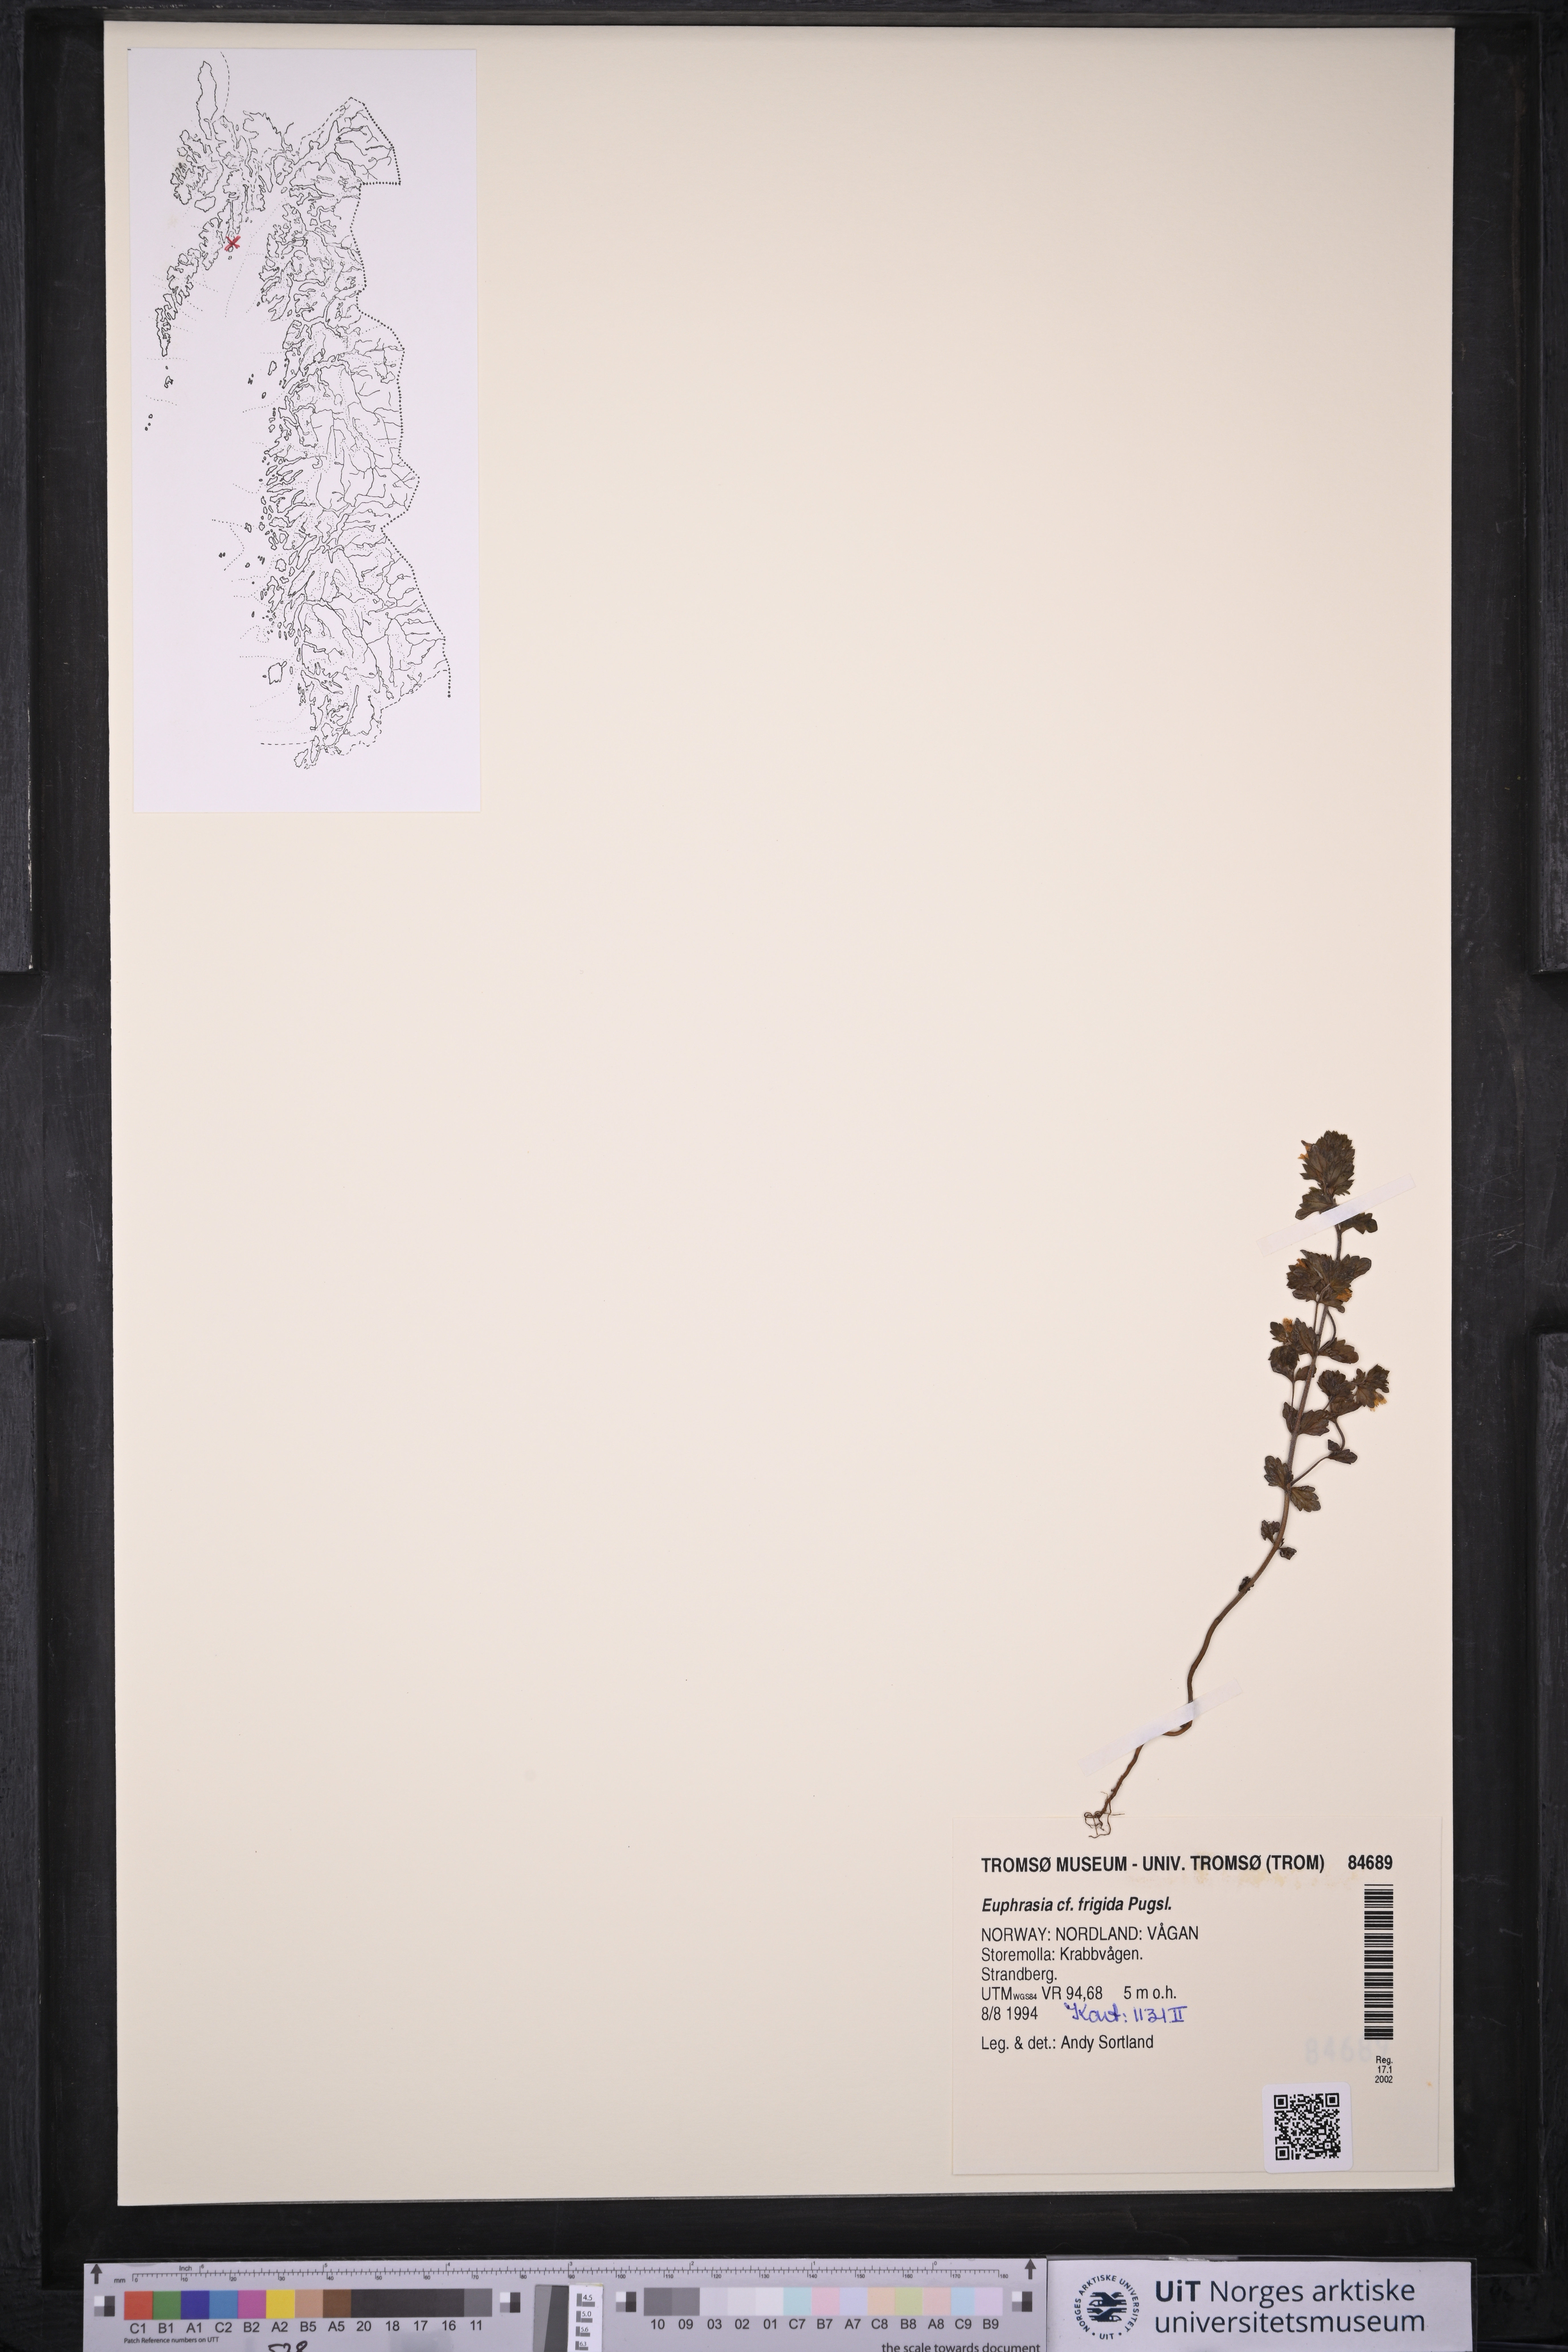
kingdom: Plantae
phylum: Tracheophyta
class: Magnoliopsida
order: Lamiales
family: Orobanchaceae
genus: Euphrasia
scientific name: Euphrasia frigida
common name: An eyebright
